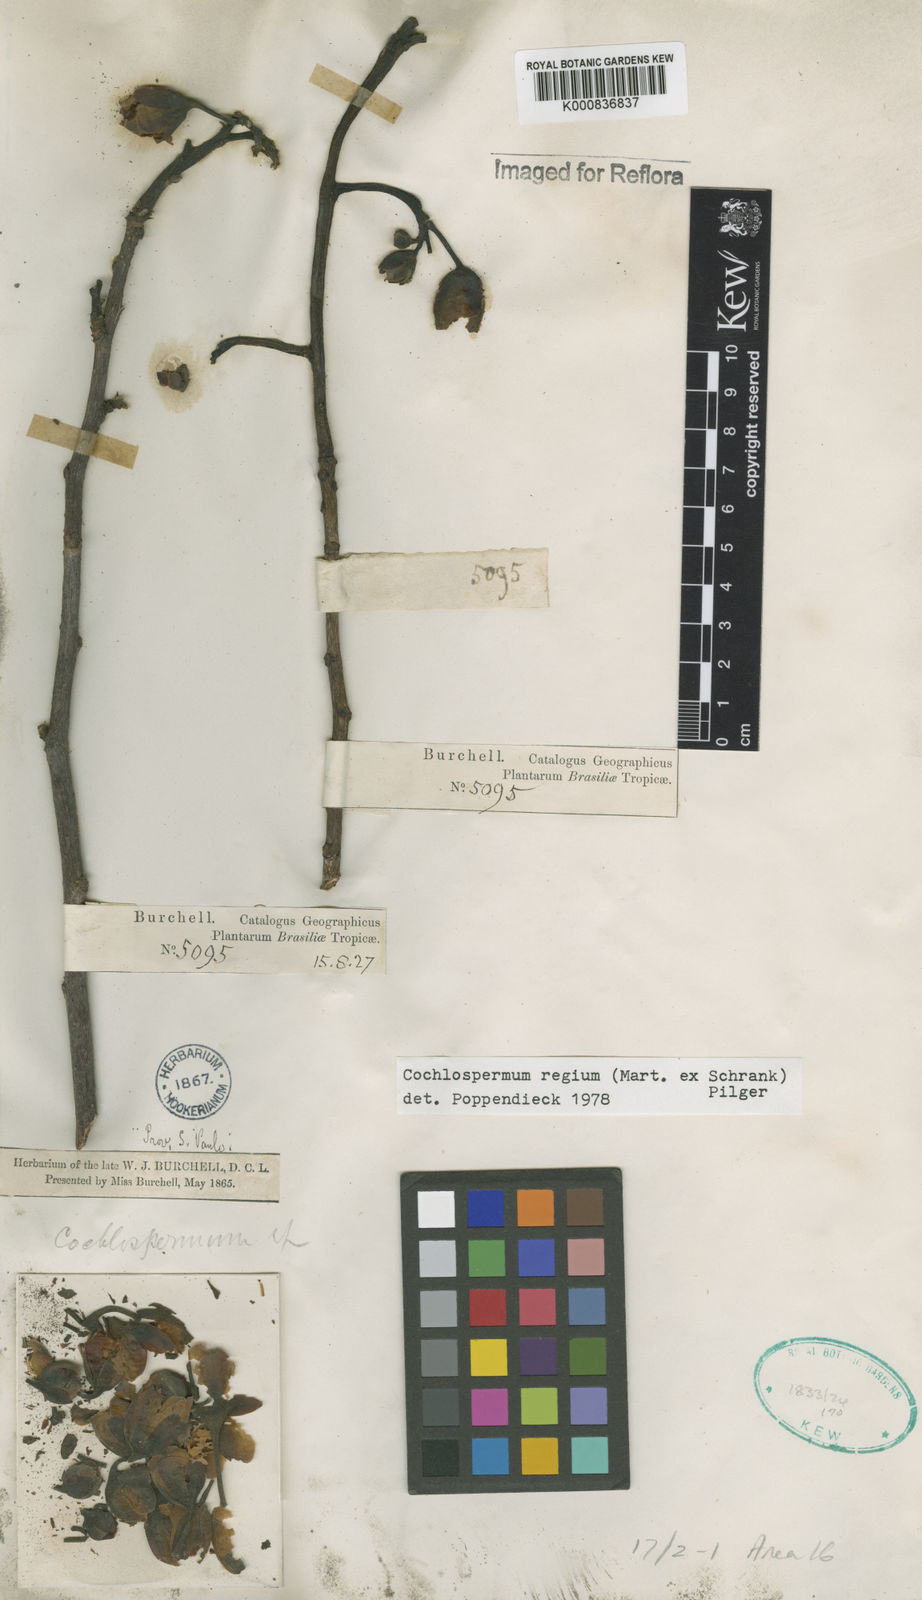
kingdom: Plantae
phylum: Tracheophyta
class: Magnoliopsida
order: Malvales
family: Cochlospermaceae
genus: Cochlospermum
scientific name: Cochlospermum regium
